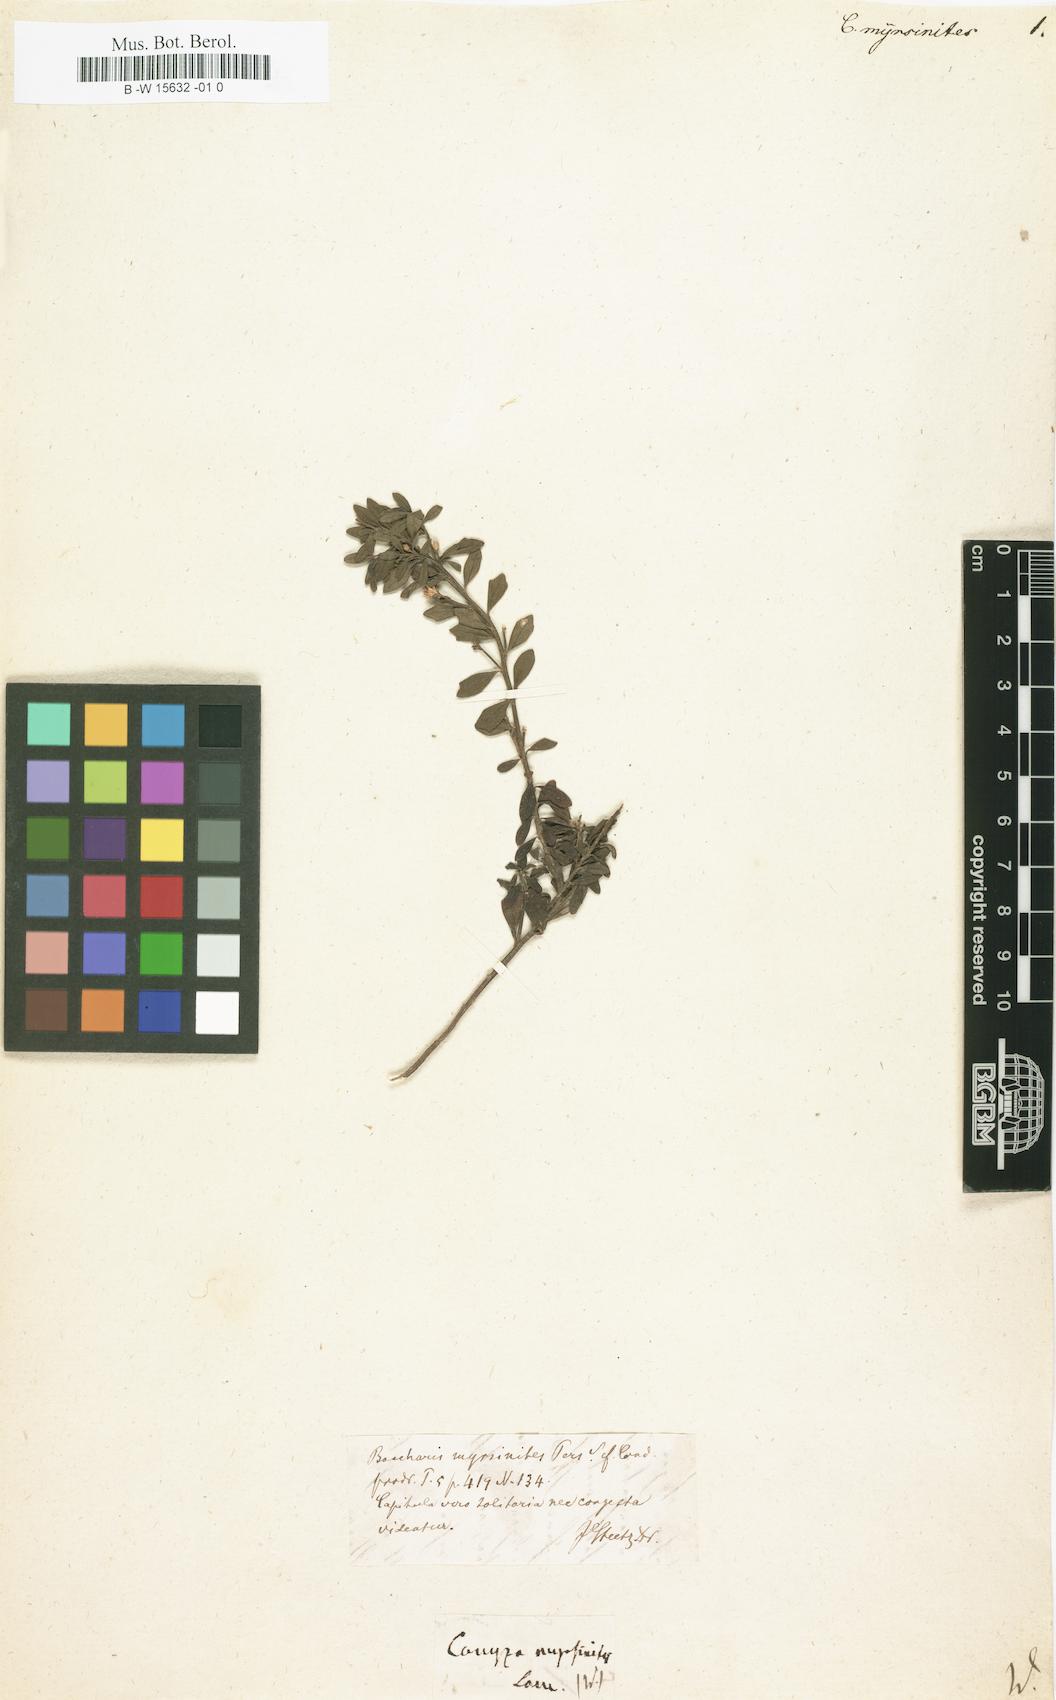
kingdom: Plantae
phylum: Tracheophyta
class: Magnoliopsida
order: Asterales
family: Asteraceae
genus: Baccharis
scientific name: Baccharis myrsinites
